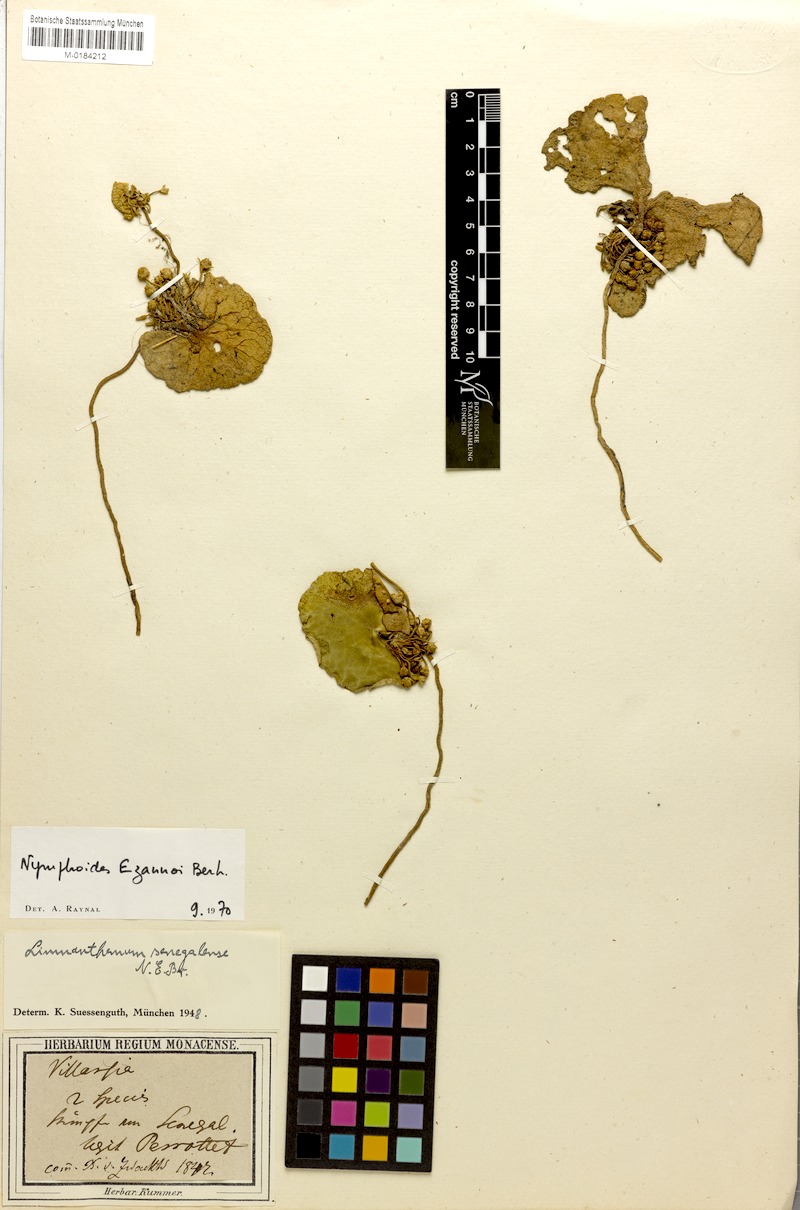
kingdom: Plantae
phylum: Tracheophyta
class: Magnoliopsida
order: Asterales
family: Menyanthaceae
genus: Nymphoides
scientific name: Nymphoides indica
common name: Water-snowflake
